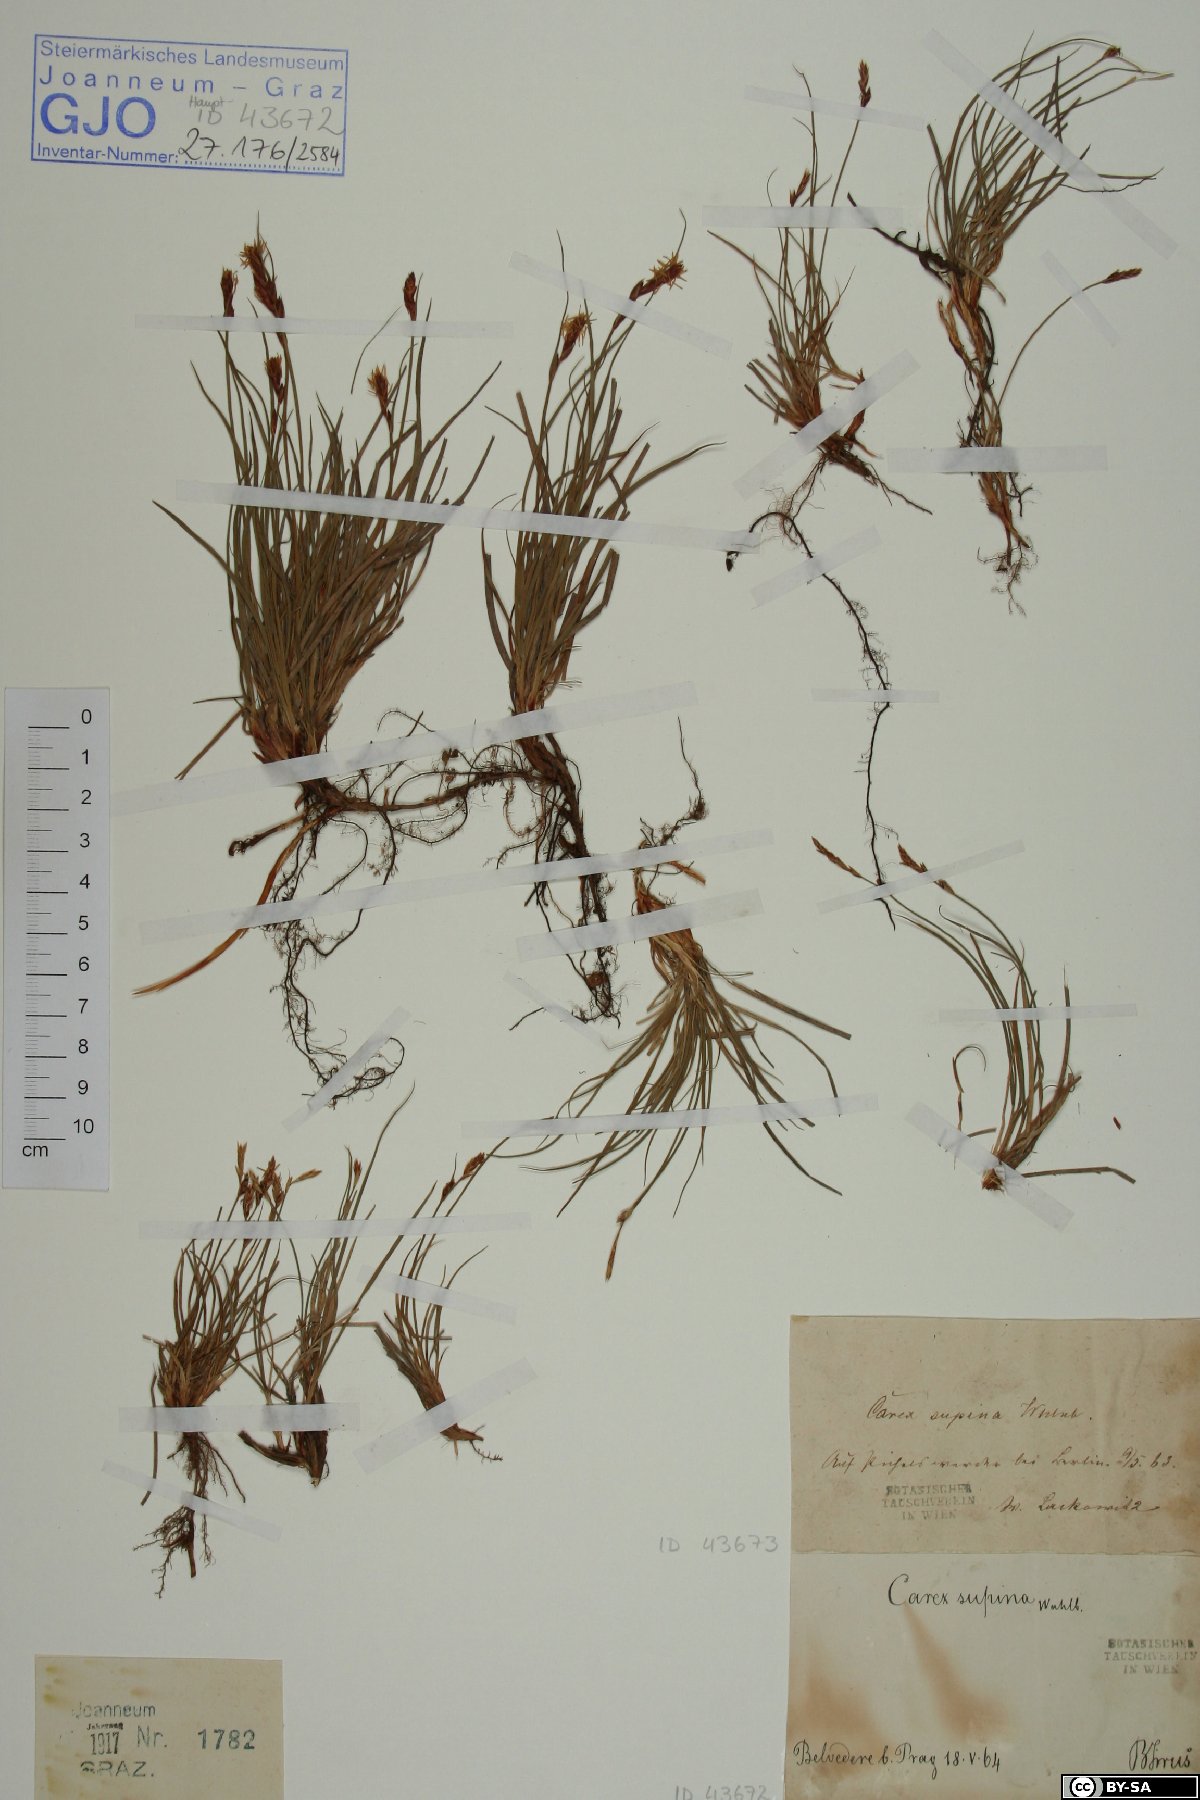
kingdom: Plantae
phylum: Tracheophyta
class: Liliopsida
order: Poales
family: Cyperaceae
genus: Carex
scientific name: Carex supina
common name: Lying-back sedge
